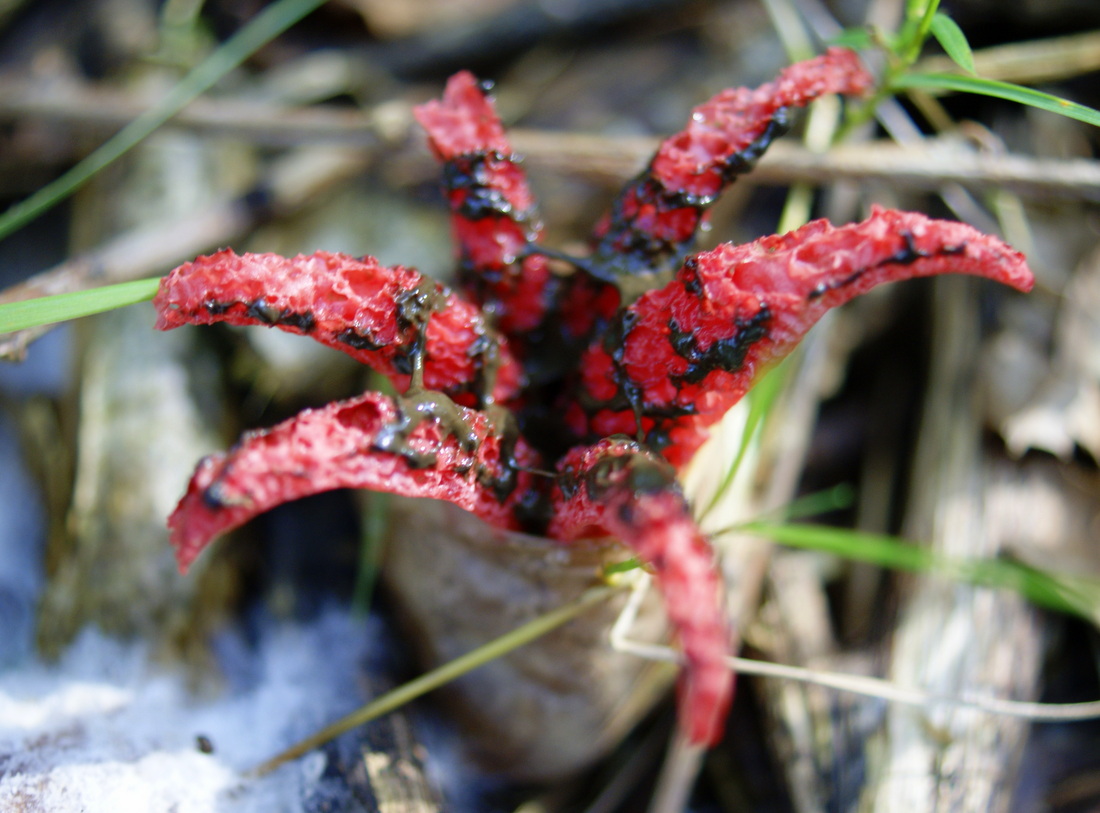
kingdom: Fungi
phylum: Basidiomycota
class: Agaricomycetes
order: Phallales
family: Phallaceae
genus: Clathrus
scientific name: Clathrus archeri
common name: blækspruttesvamp
